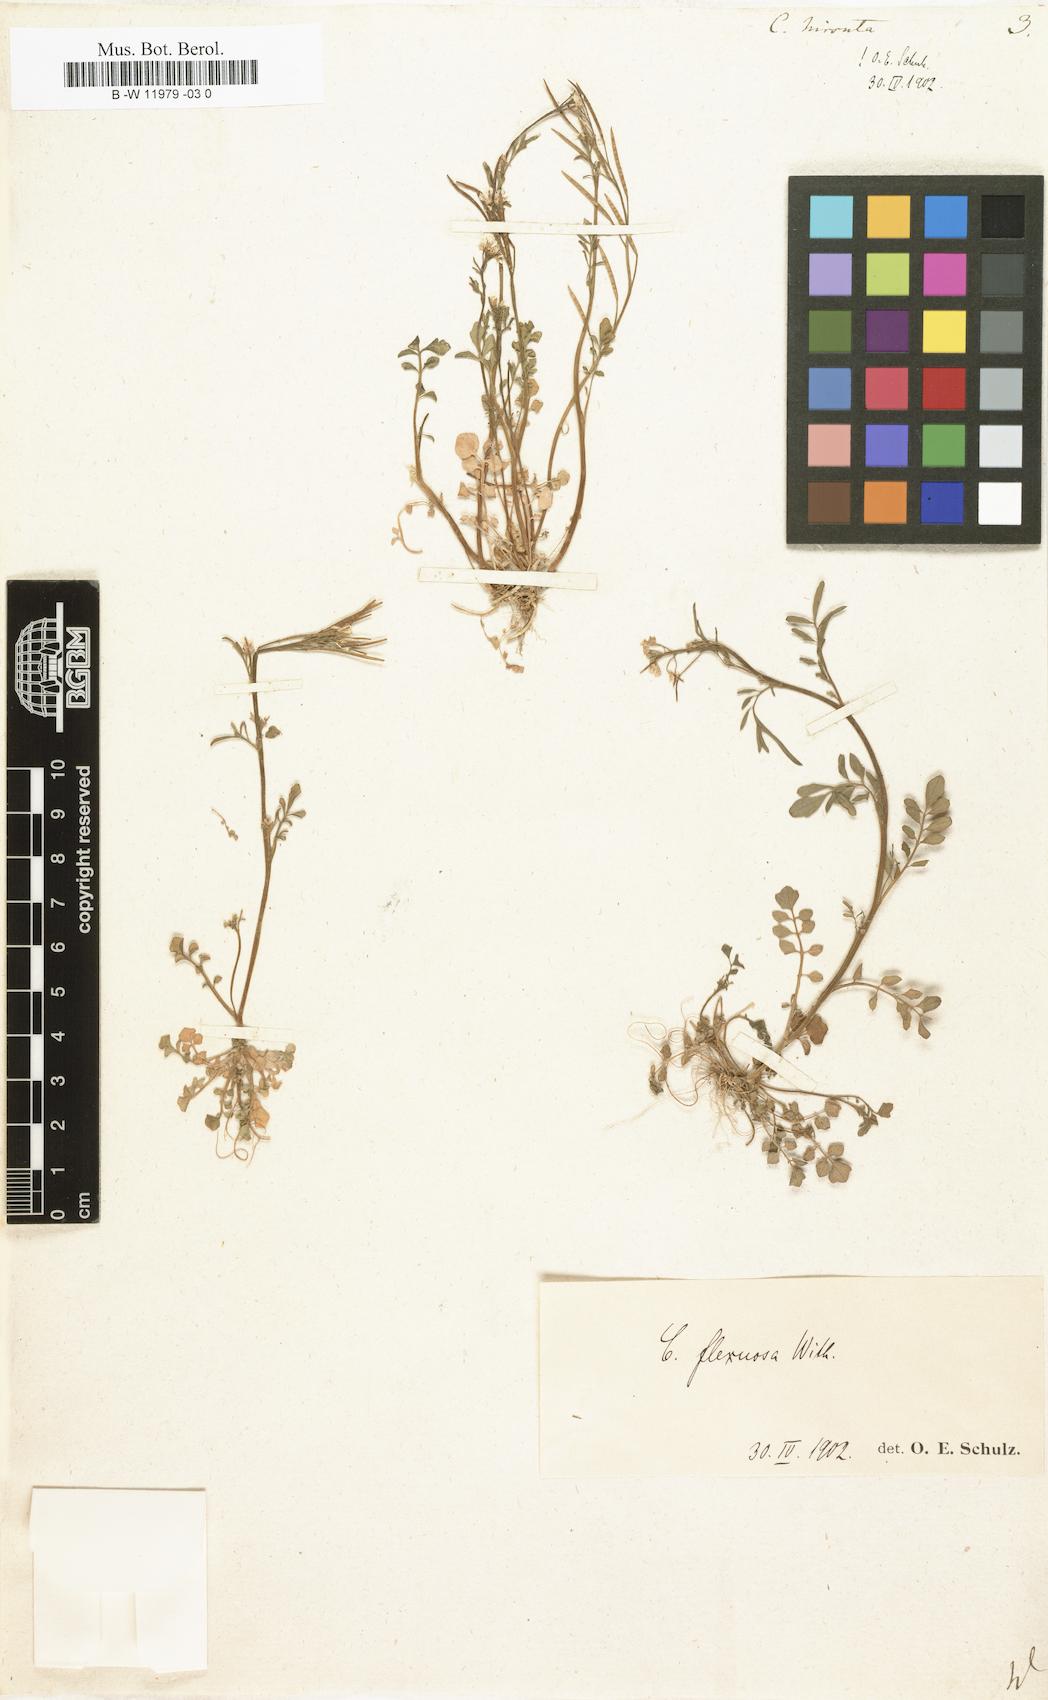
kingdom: Plantae
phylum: Tracheophyta
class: Magnoliopsida
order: Brassicales
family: Brassicaceae
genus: Cardamine
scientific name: Cardamine hirsuta
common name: Hairy bittercress
